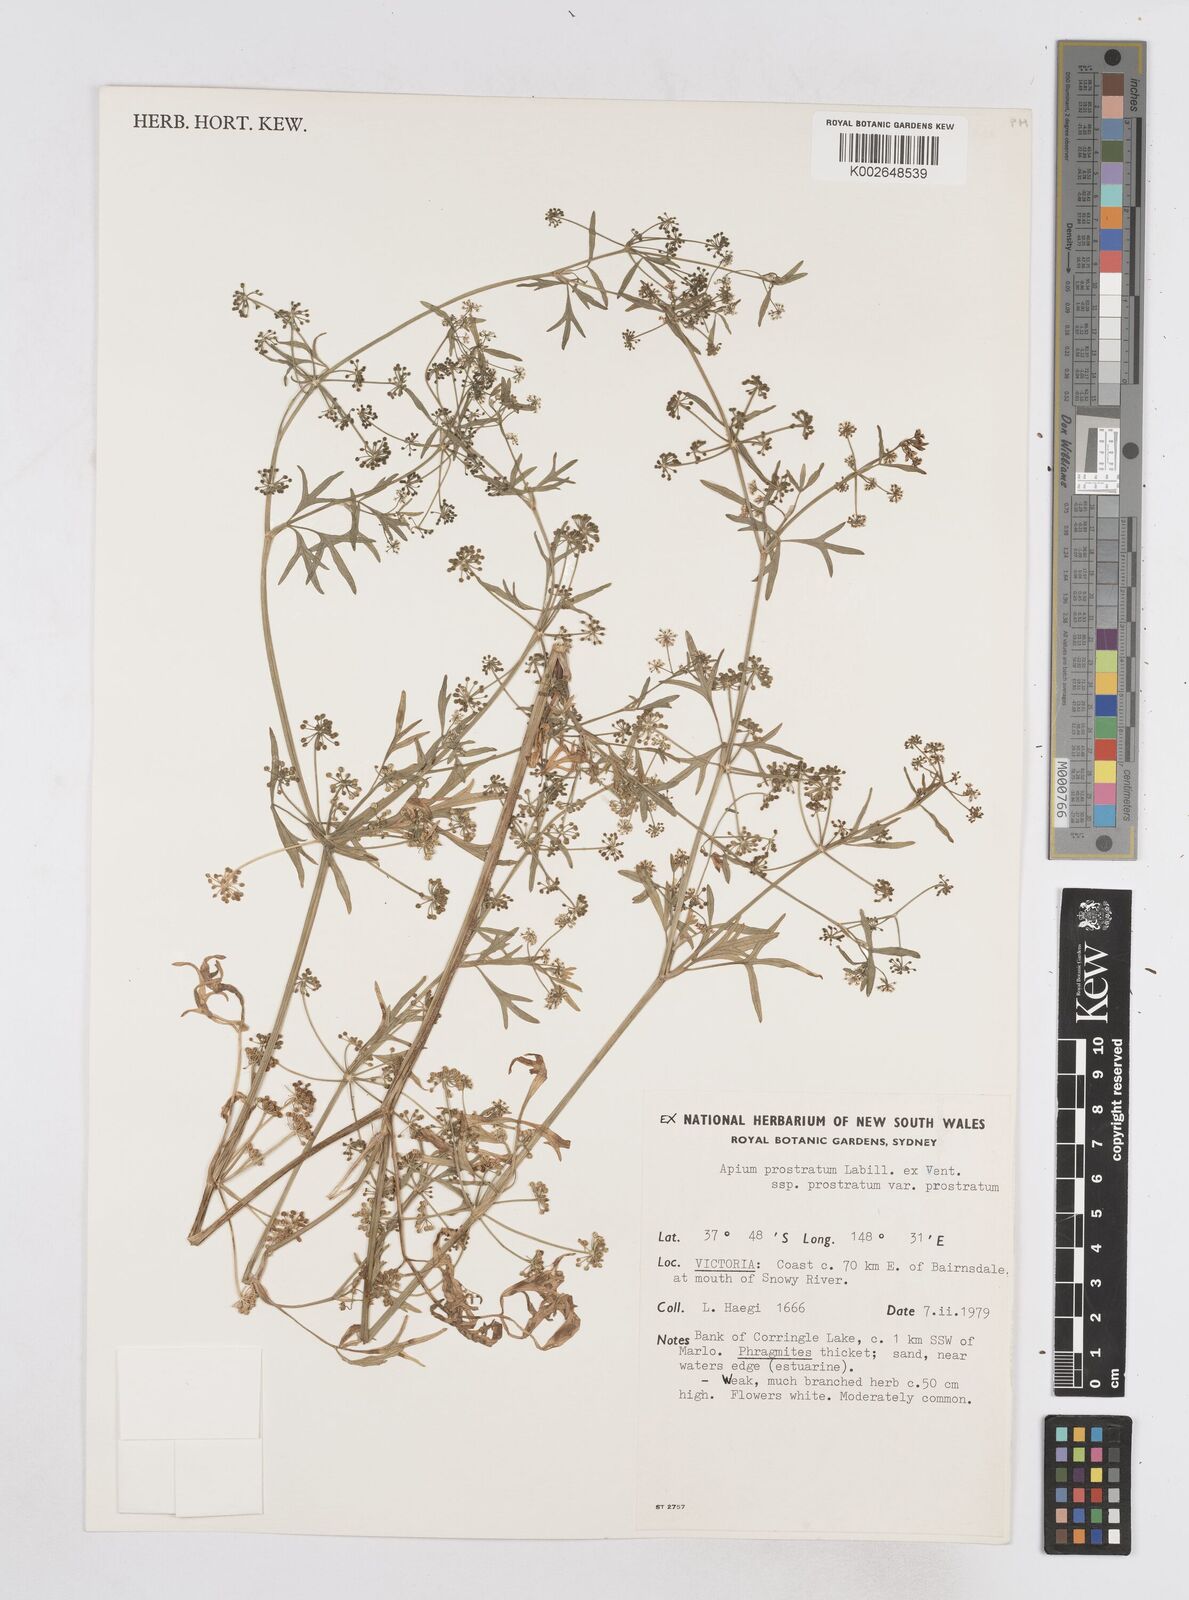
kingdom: Plantae
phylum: Tracheophyta
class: Magnoliopsida
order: Apiales
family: Apiaceae
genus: Apium
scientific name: Apium prostratum
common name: Prostrate marshwort
